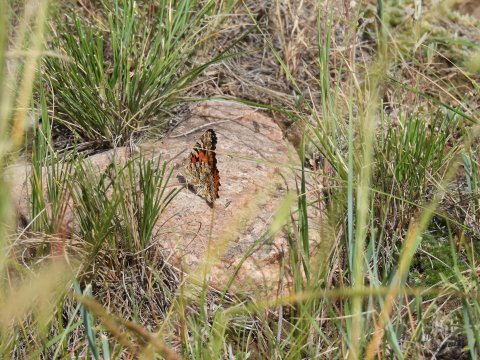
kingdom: Animalia
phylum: Arthropoda
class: Insecta
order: Lepidoptera
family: Nymphalidae
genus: Vanessa
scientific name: Vanessa cardui
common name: Painted Lady
